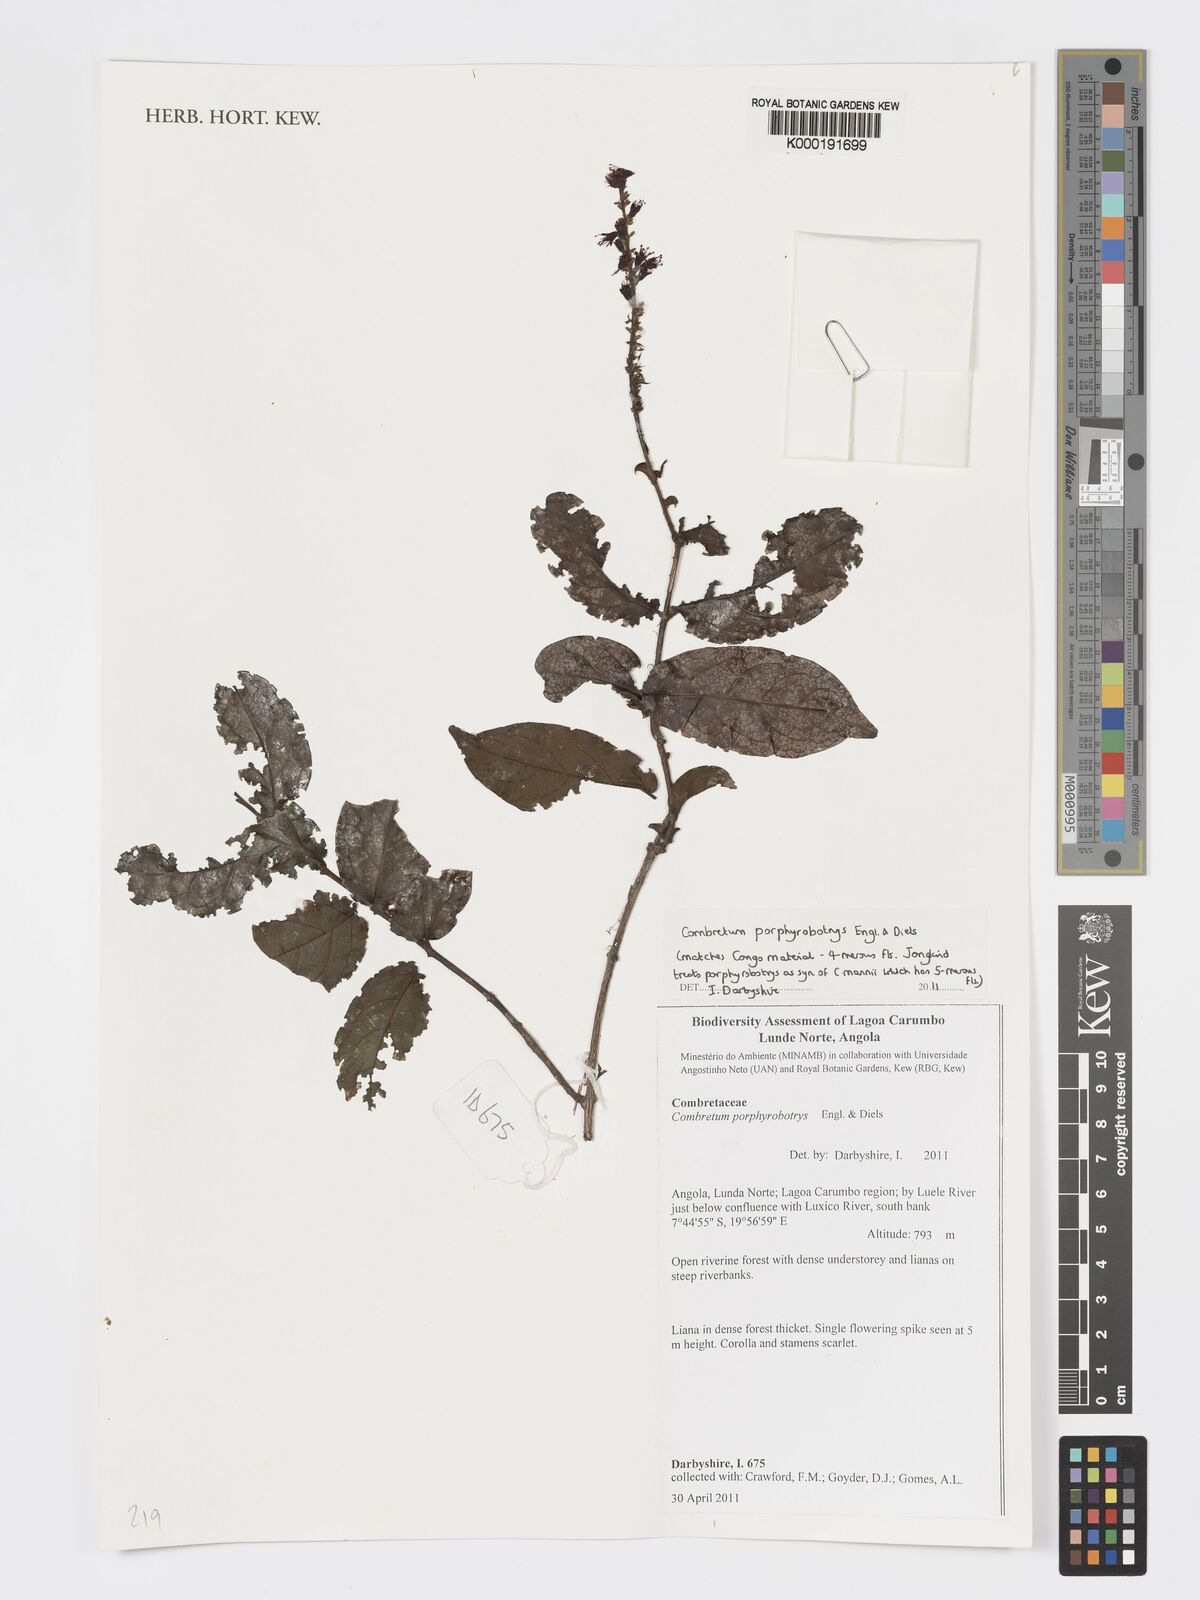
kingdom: Plantae
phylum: Tracheophyta
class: Magnoliopsida
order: Myrtales
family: Combretaceae
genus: Combretum
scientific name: Combretum hereroense
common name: Russet bushwillow
